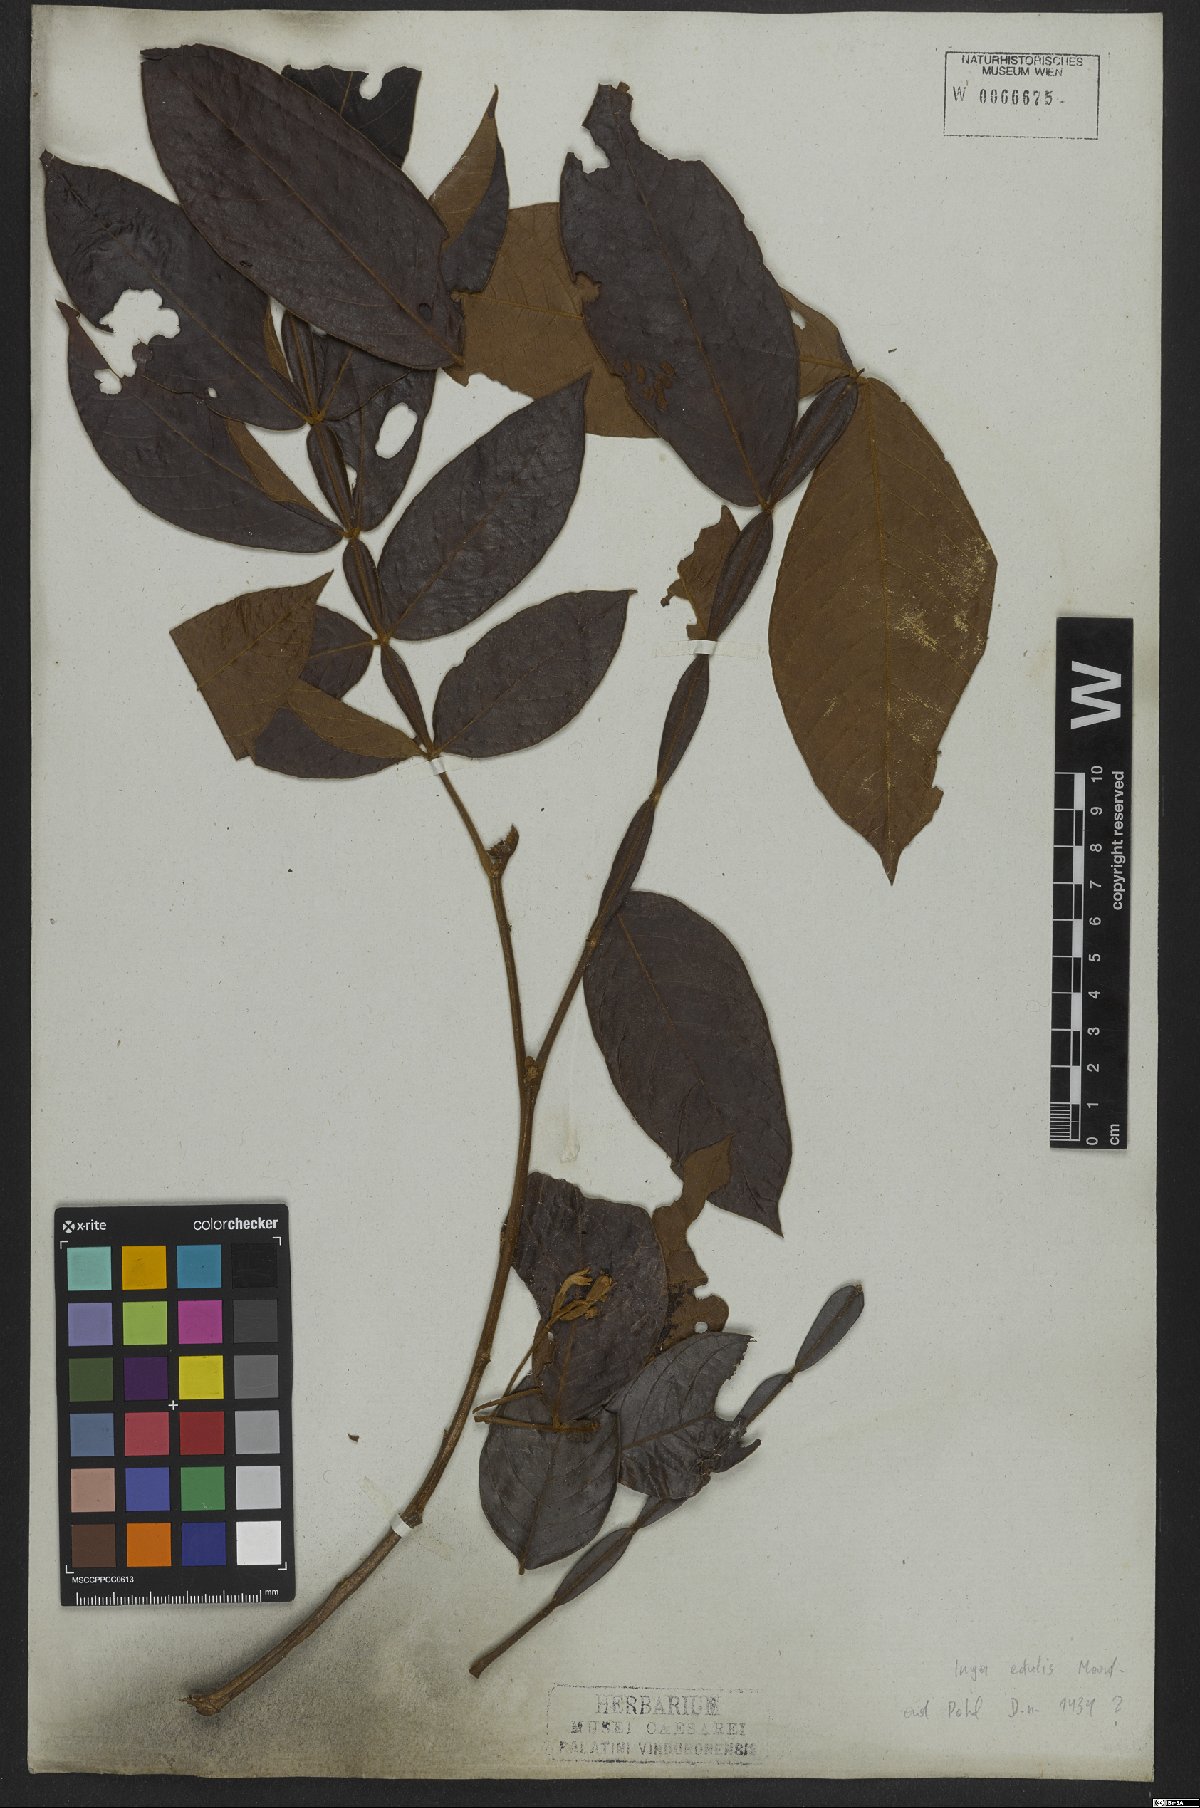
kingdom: Plantae
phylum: Tracheophyta
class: Magnoliopsida
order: Fabales
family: Fabaceae
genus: Inga
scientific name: Inga edulis
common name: Ice cream bean
